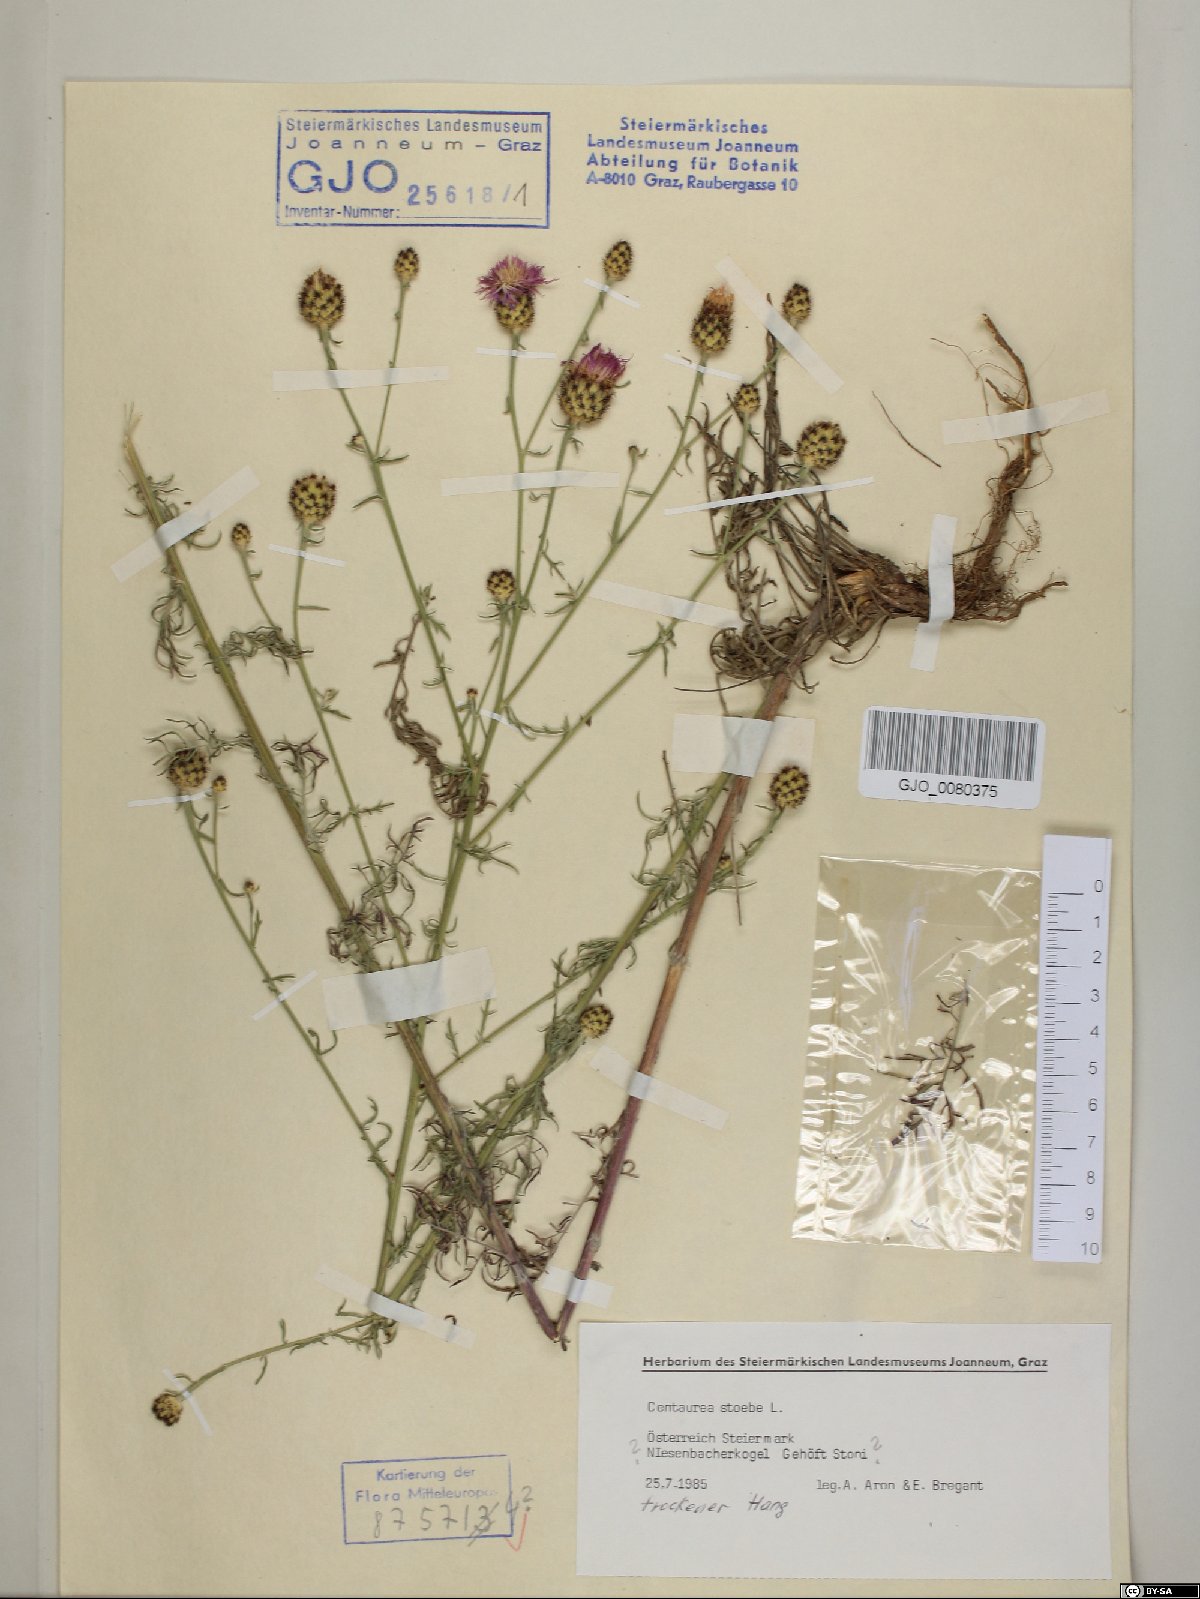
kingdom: Plantae
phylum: Tracheophyta
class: Magnoliopsida
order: Asterales
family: Asteraceae
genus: Centaurea
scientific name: Centaurea stoebe
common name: Spotted knapweed
